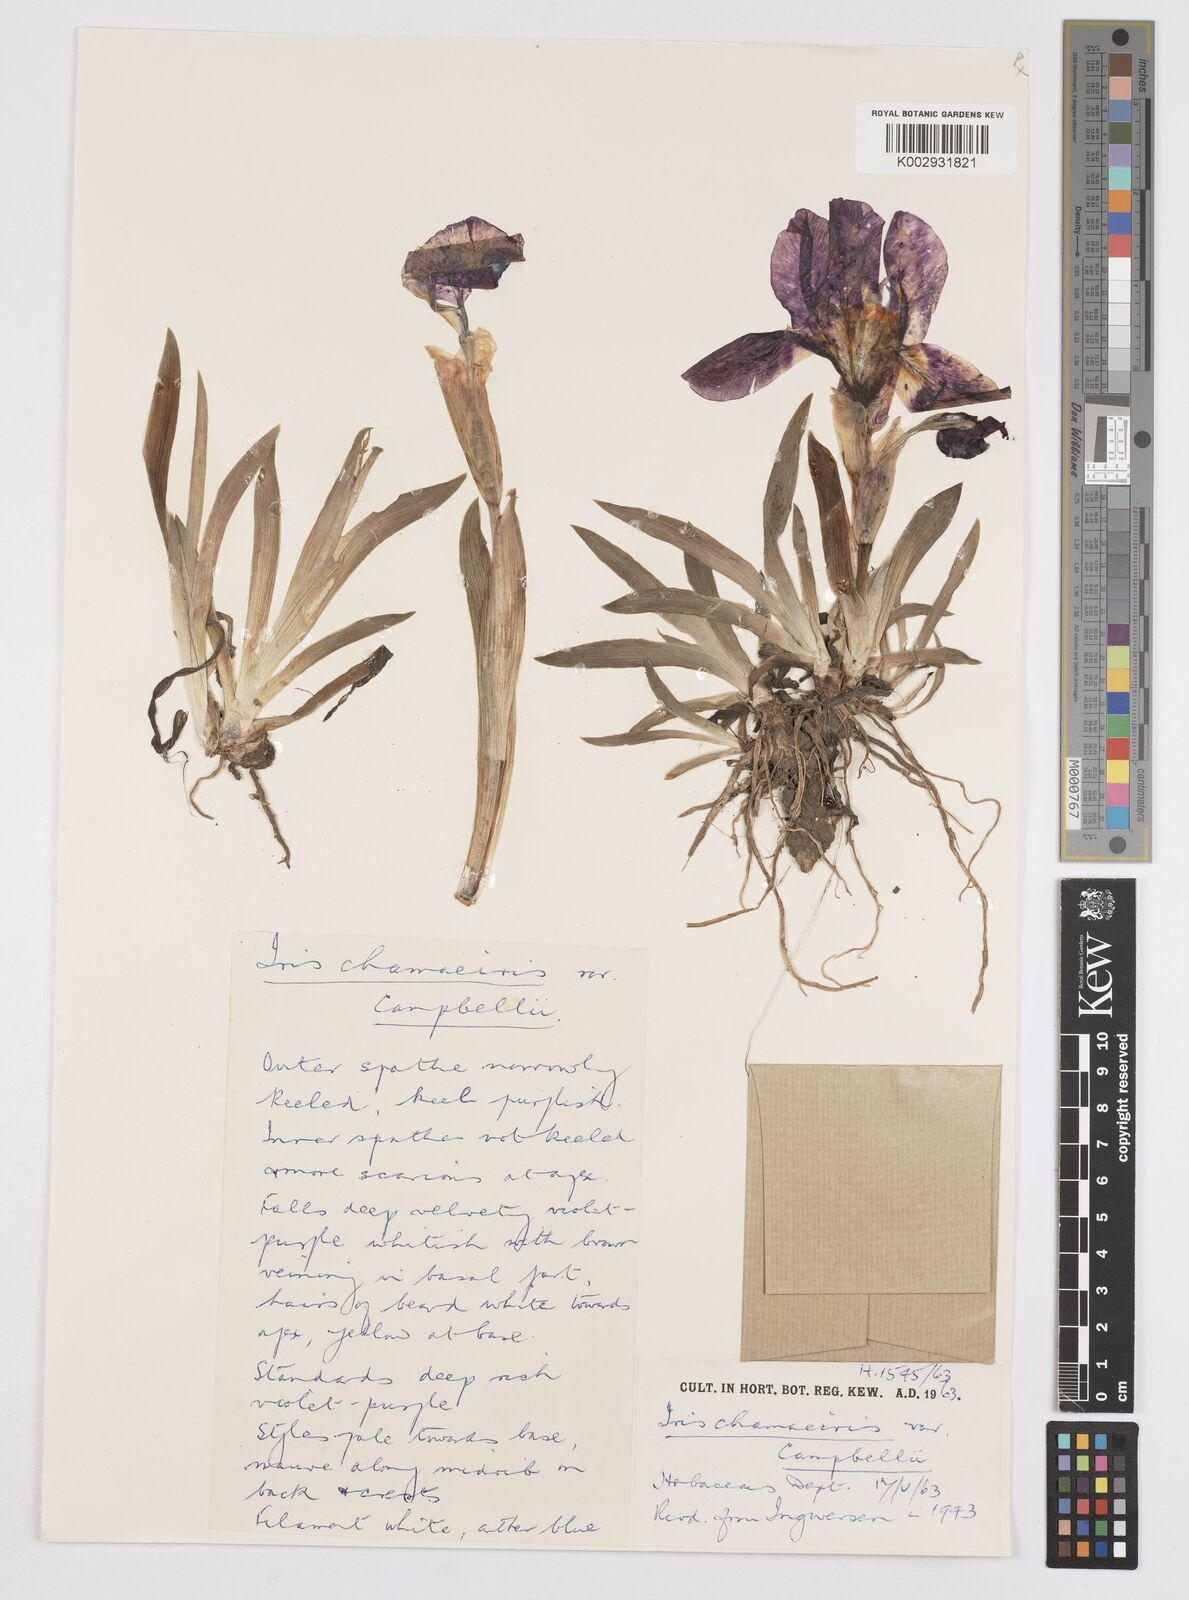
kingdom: Plantae
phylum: Tracheophyta
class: Liliopsida
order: Asparagales
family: Iridaceae
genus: Iris
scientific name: Iris lutescens
